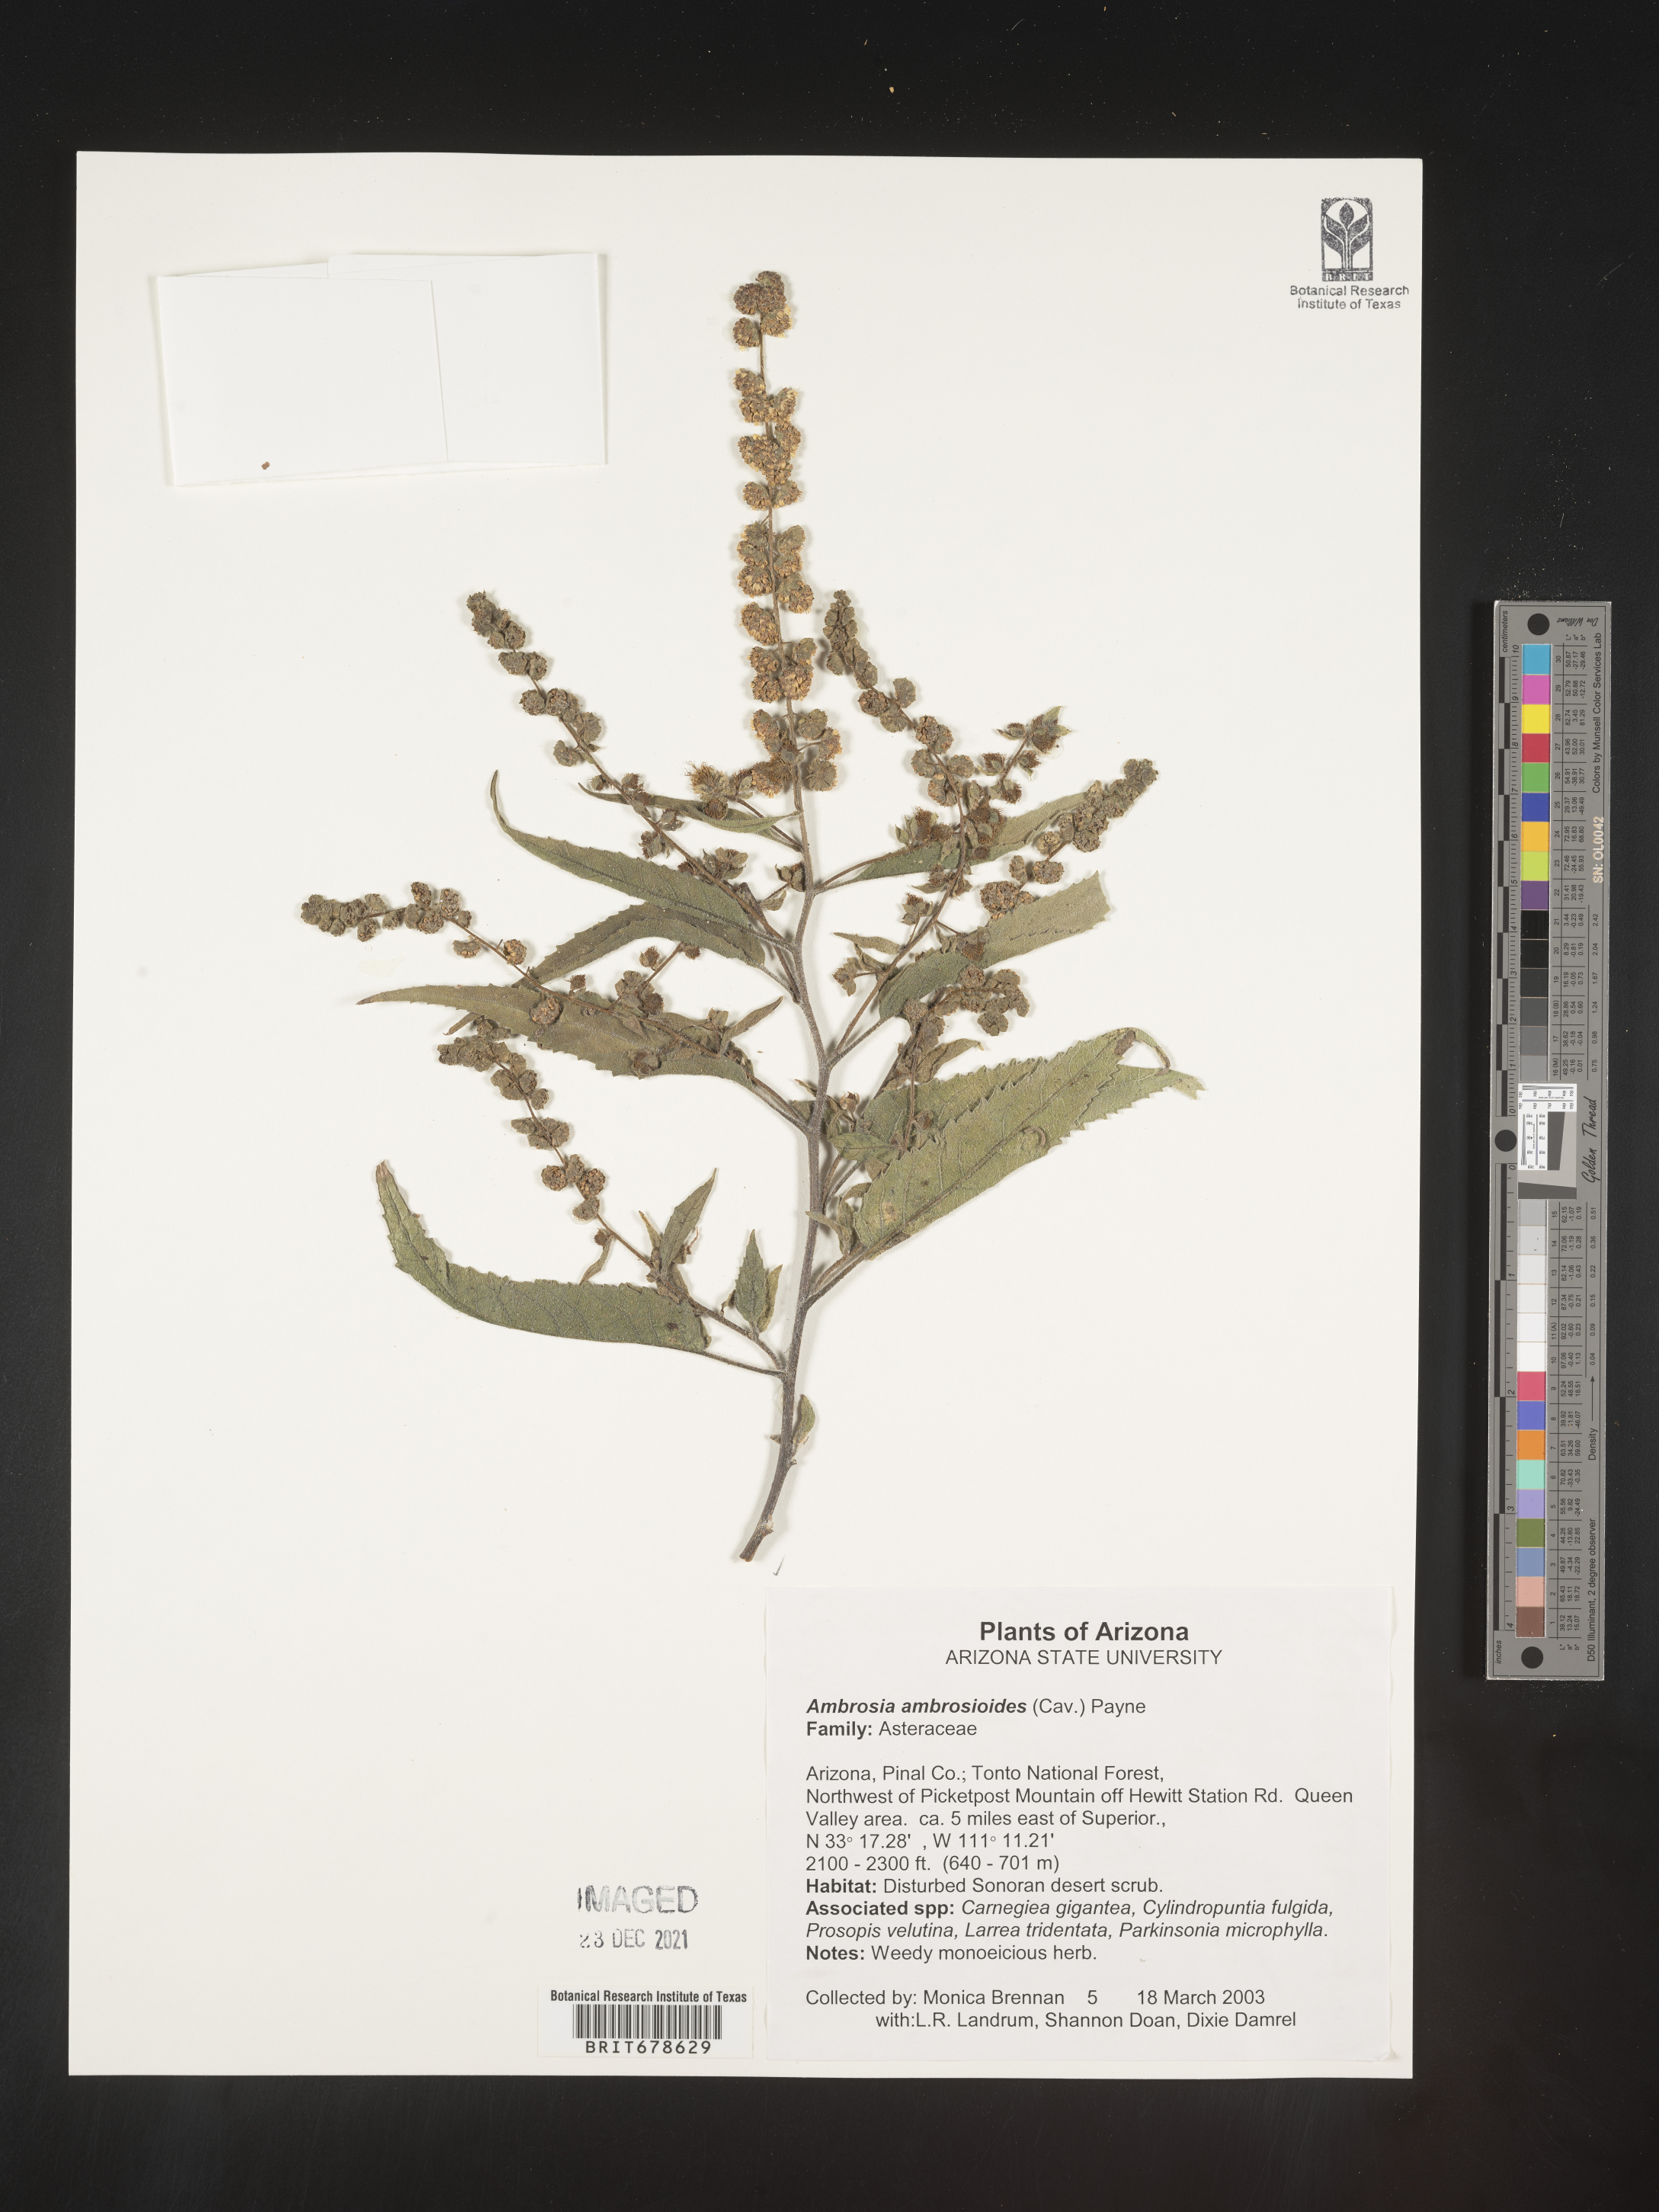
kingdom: Plantae
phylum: Tracheophyta
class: Magnoliopsida
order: Asterales
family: Asteraceae
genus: Ambrosia
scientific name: Ambrosia ambrosioides
